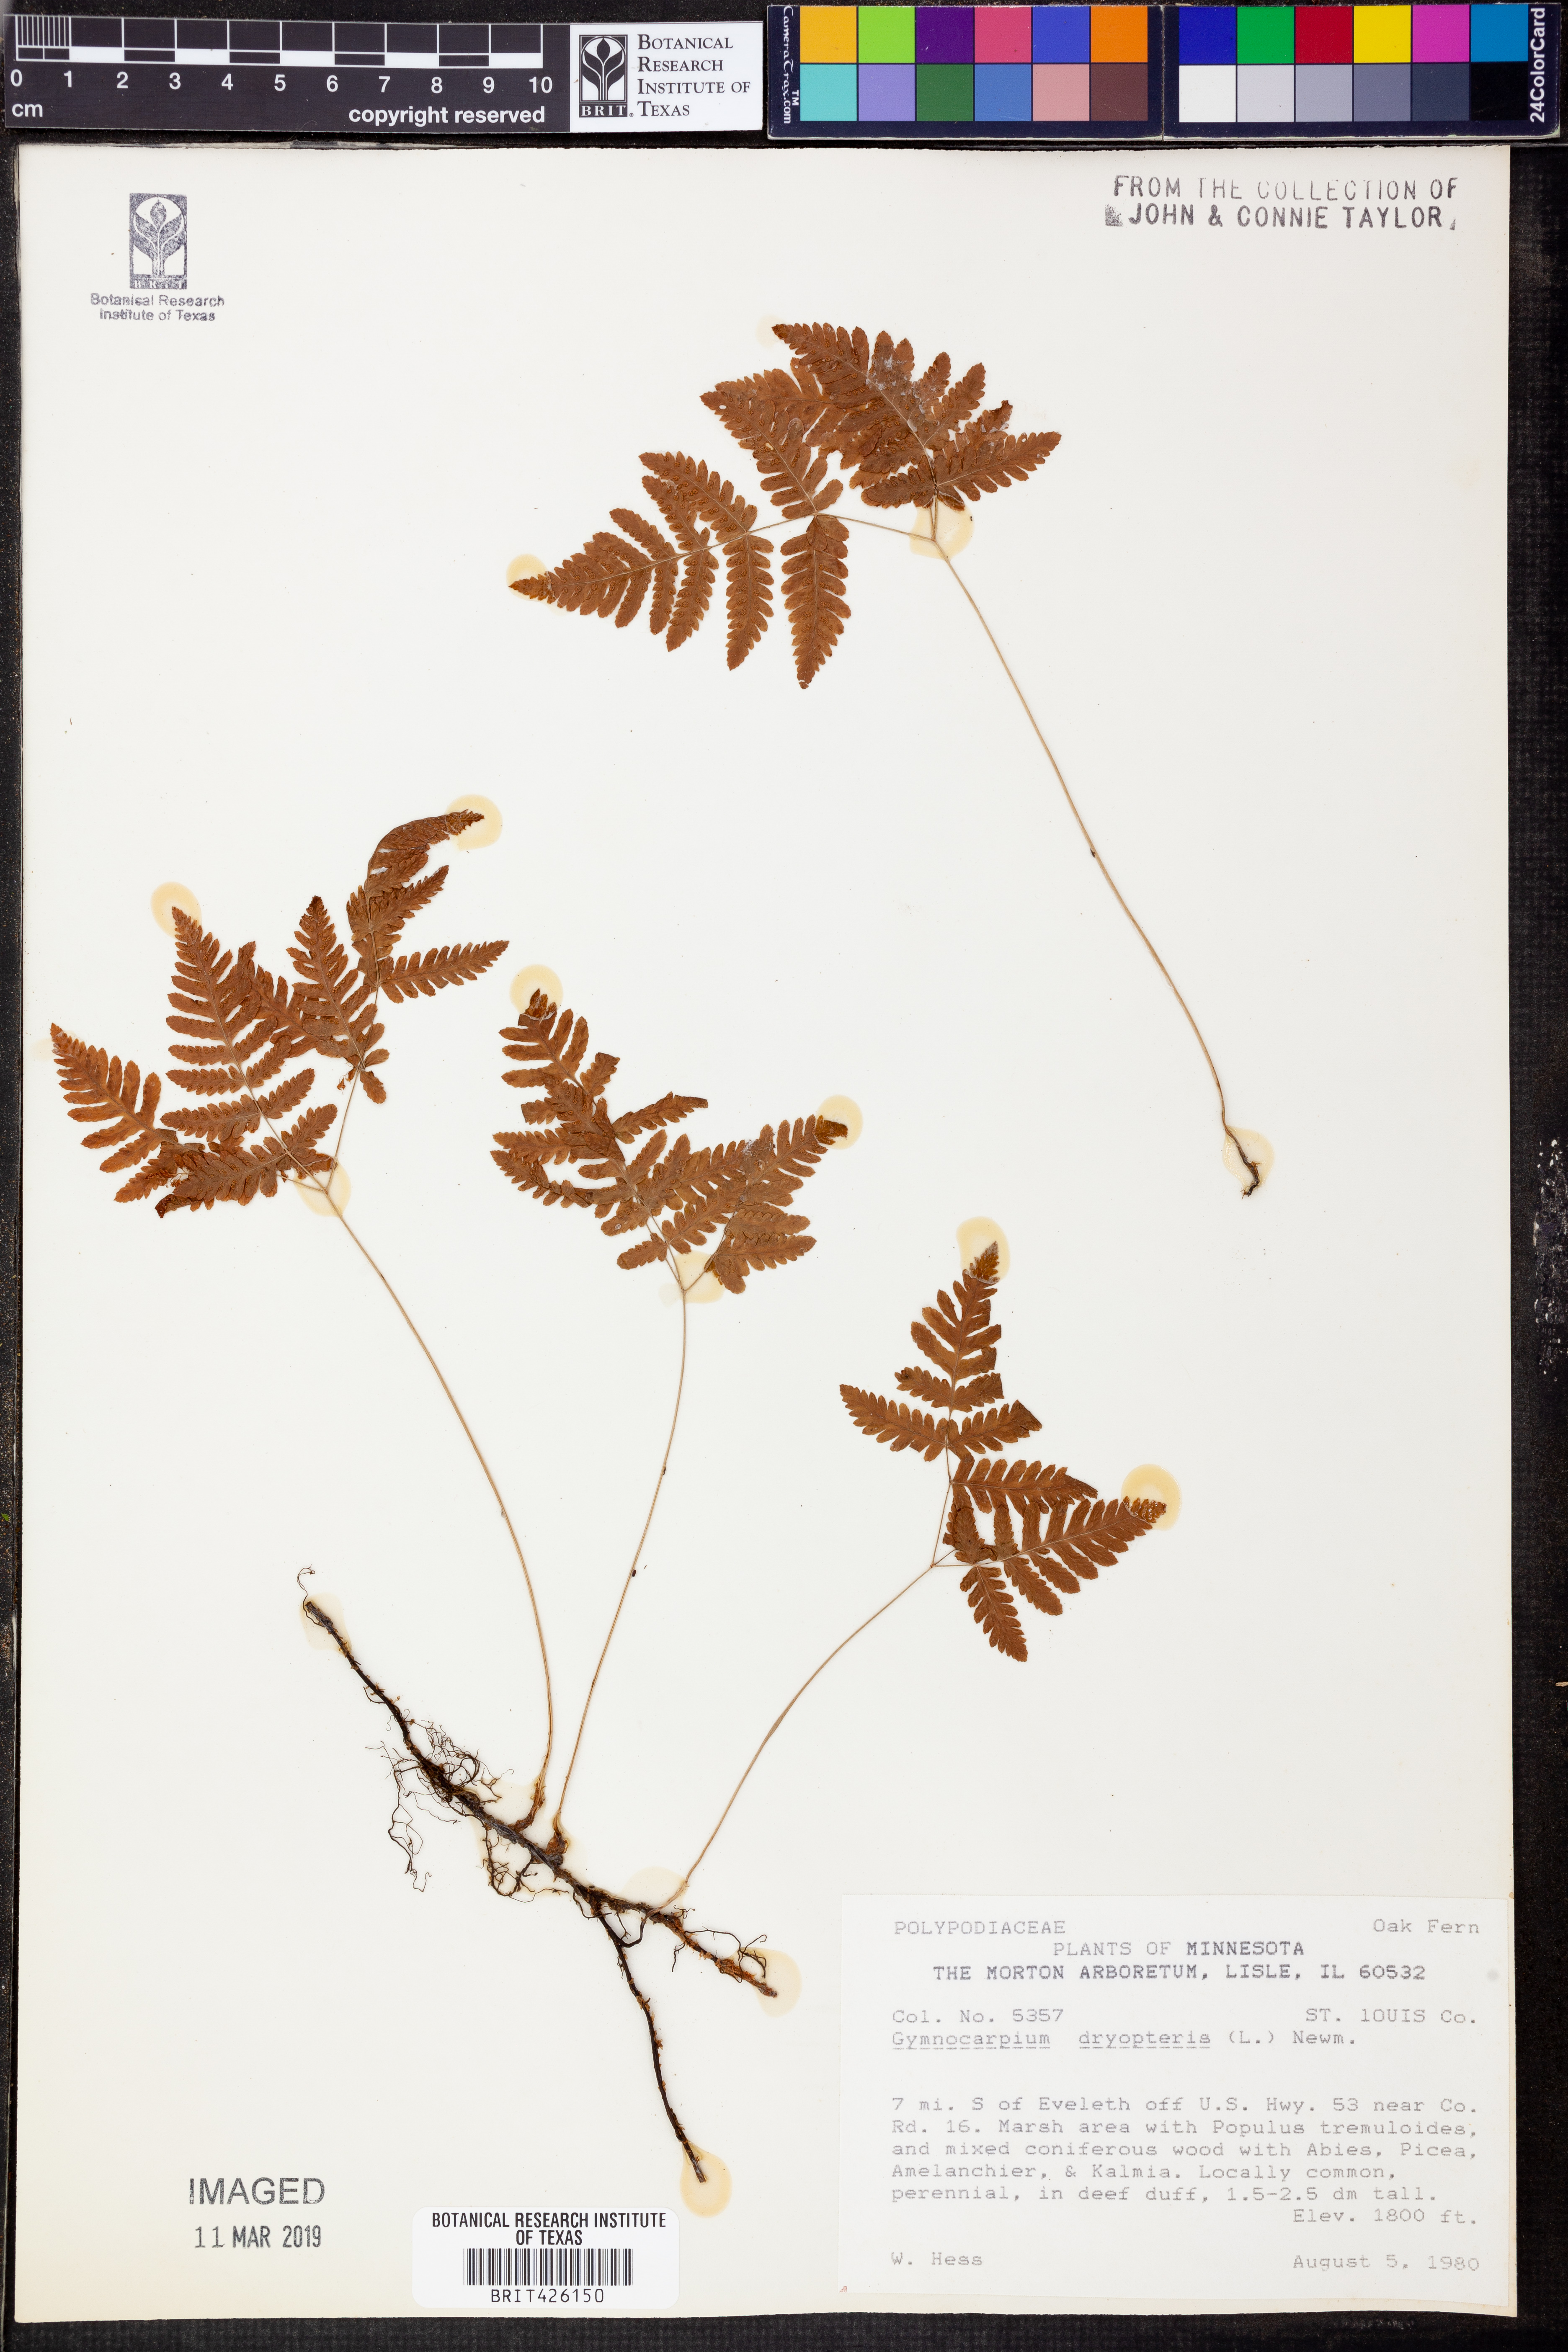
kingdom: Plantae
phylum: Tracheophyta
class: Polypodiopsida
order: Polypodiales
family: Cystopteridaceae
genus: Gymnocarpium
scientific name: Gymnocarpium dryopteris
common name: Oak fern
